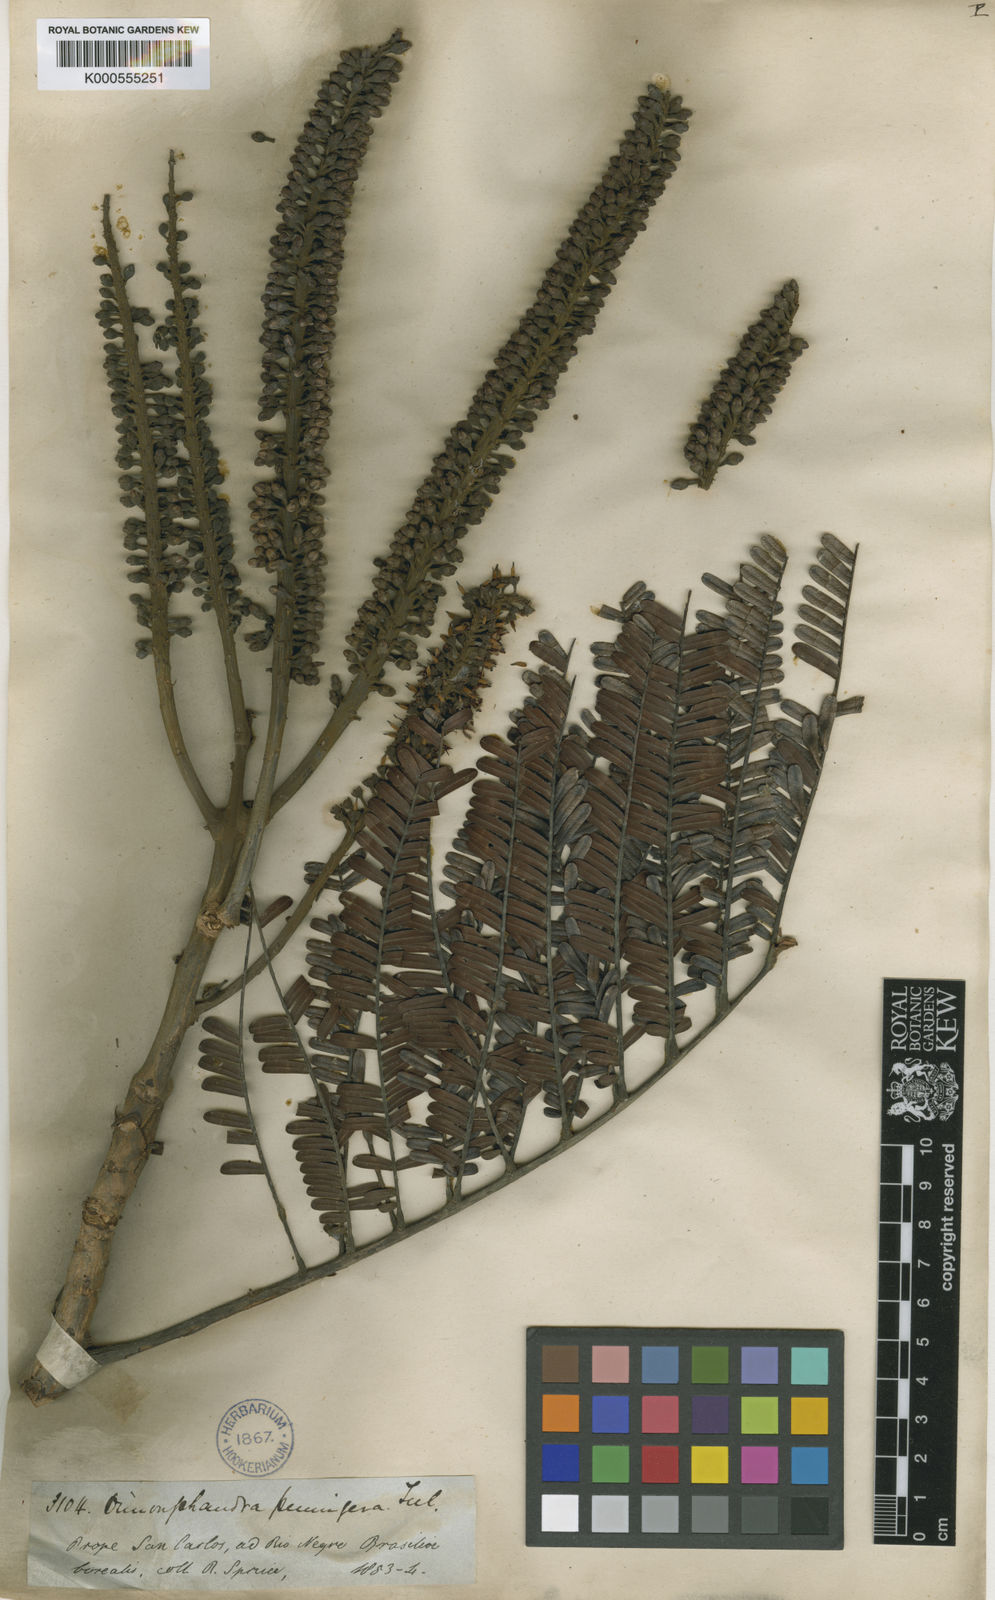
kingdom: Plantae
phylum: Tracheophyta
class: Magnoliopsida
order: Fabales
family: Fabaceae
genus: Dimorphandra
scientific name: Dimorphandra pennigera
